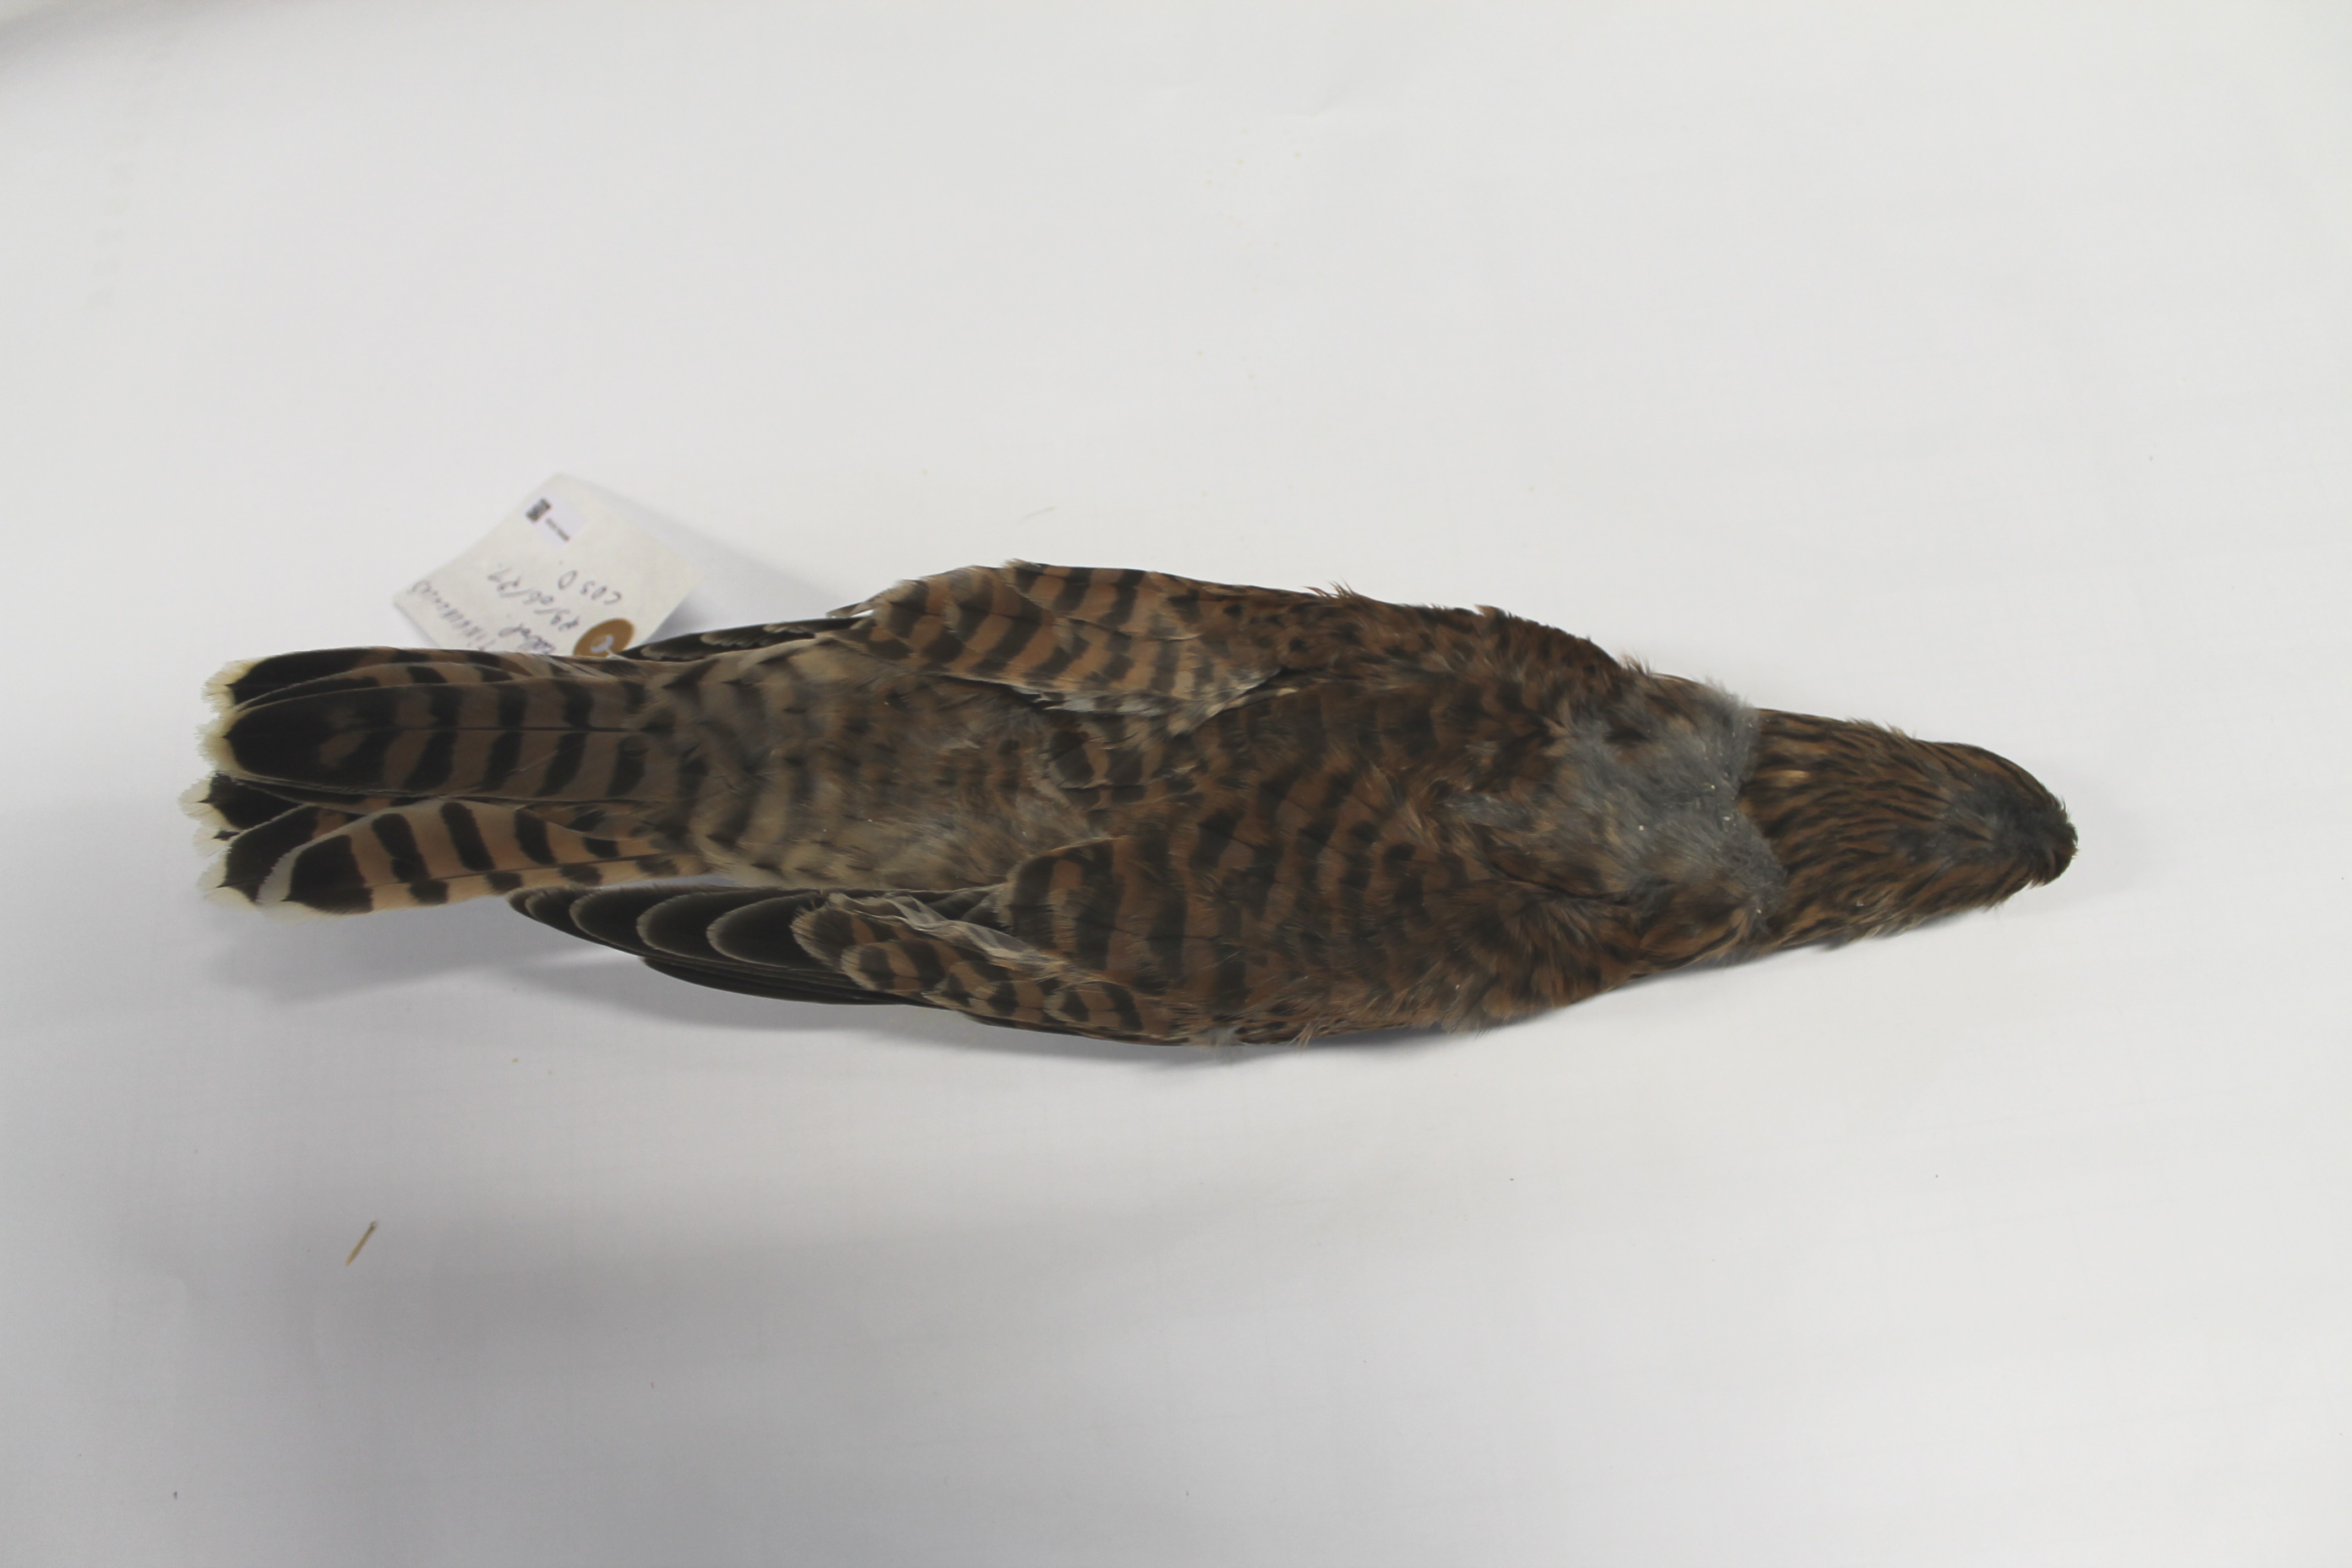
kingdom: Animalia
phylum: Chordata
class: Aves
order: Falconiformes
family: Falconidae
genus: Falco
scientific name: Falco tinnunculus
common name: Common kestrel
